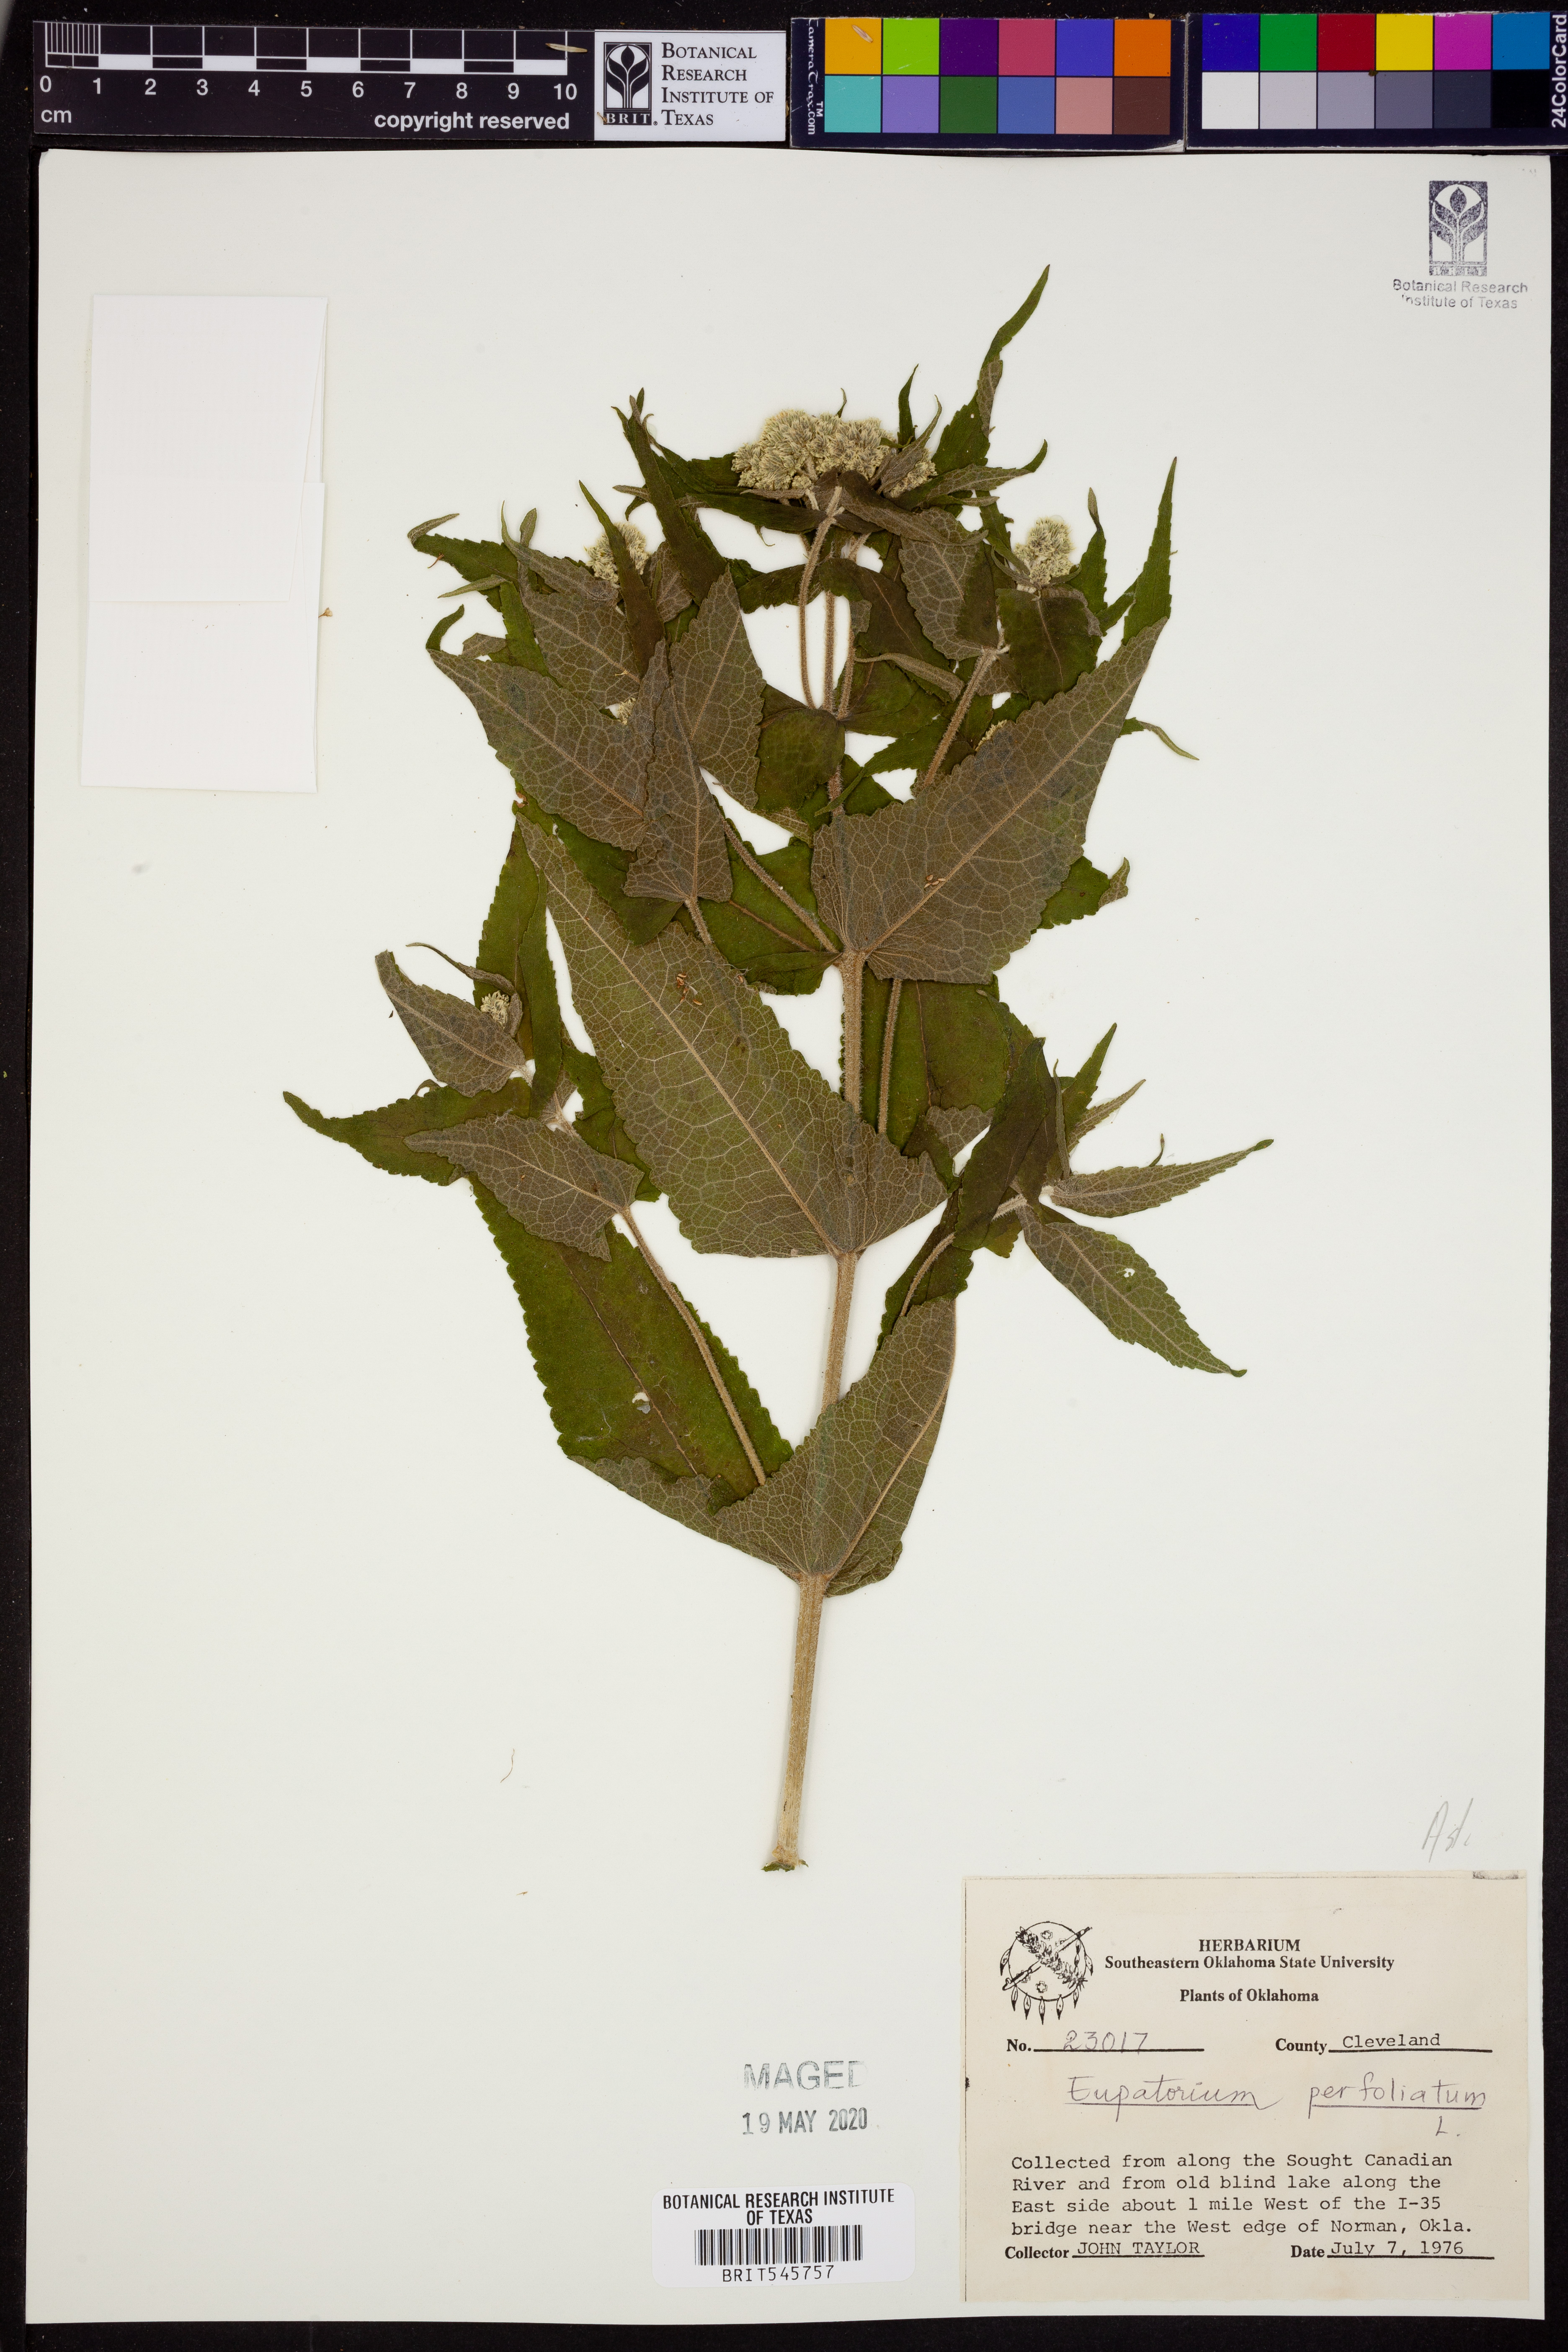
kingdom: Plantae
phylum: Tracheophyta
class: Magnoliopsida
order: Asterales
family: Asteraceae
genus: Eupatorium
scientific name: Eupatorium perfoliatum
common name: Boneset
